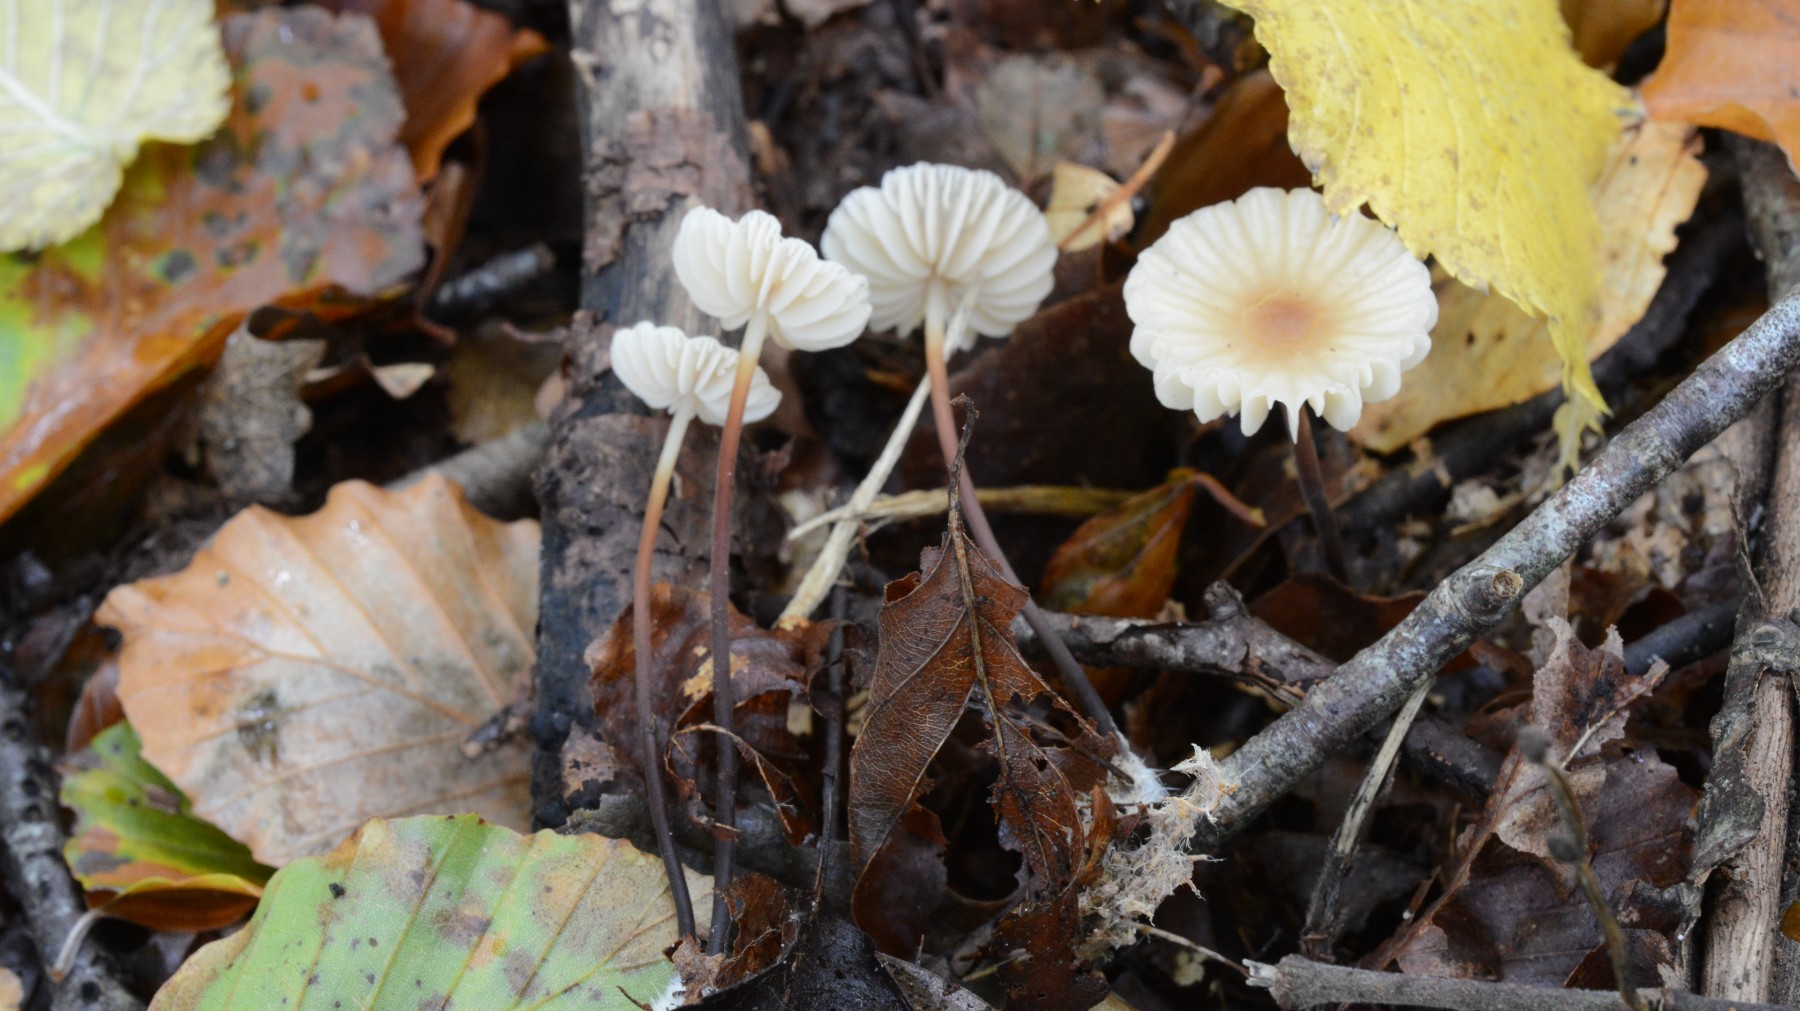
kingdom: Fungi
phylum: Basidiomycota
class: Agaricomycetes
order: Agaricales
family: Marasmiaceae
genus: Marasmius
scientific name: Marasmius torquescens
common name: filtfodet bruskhat
